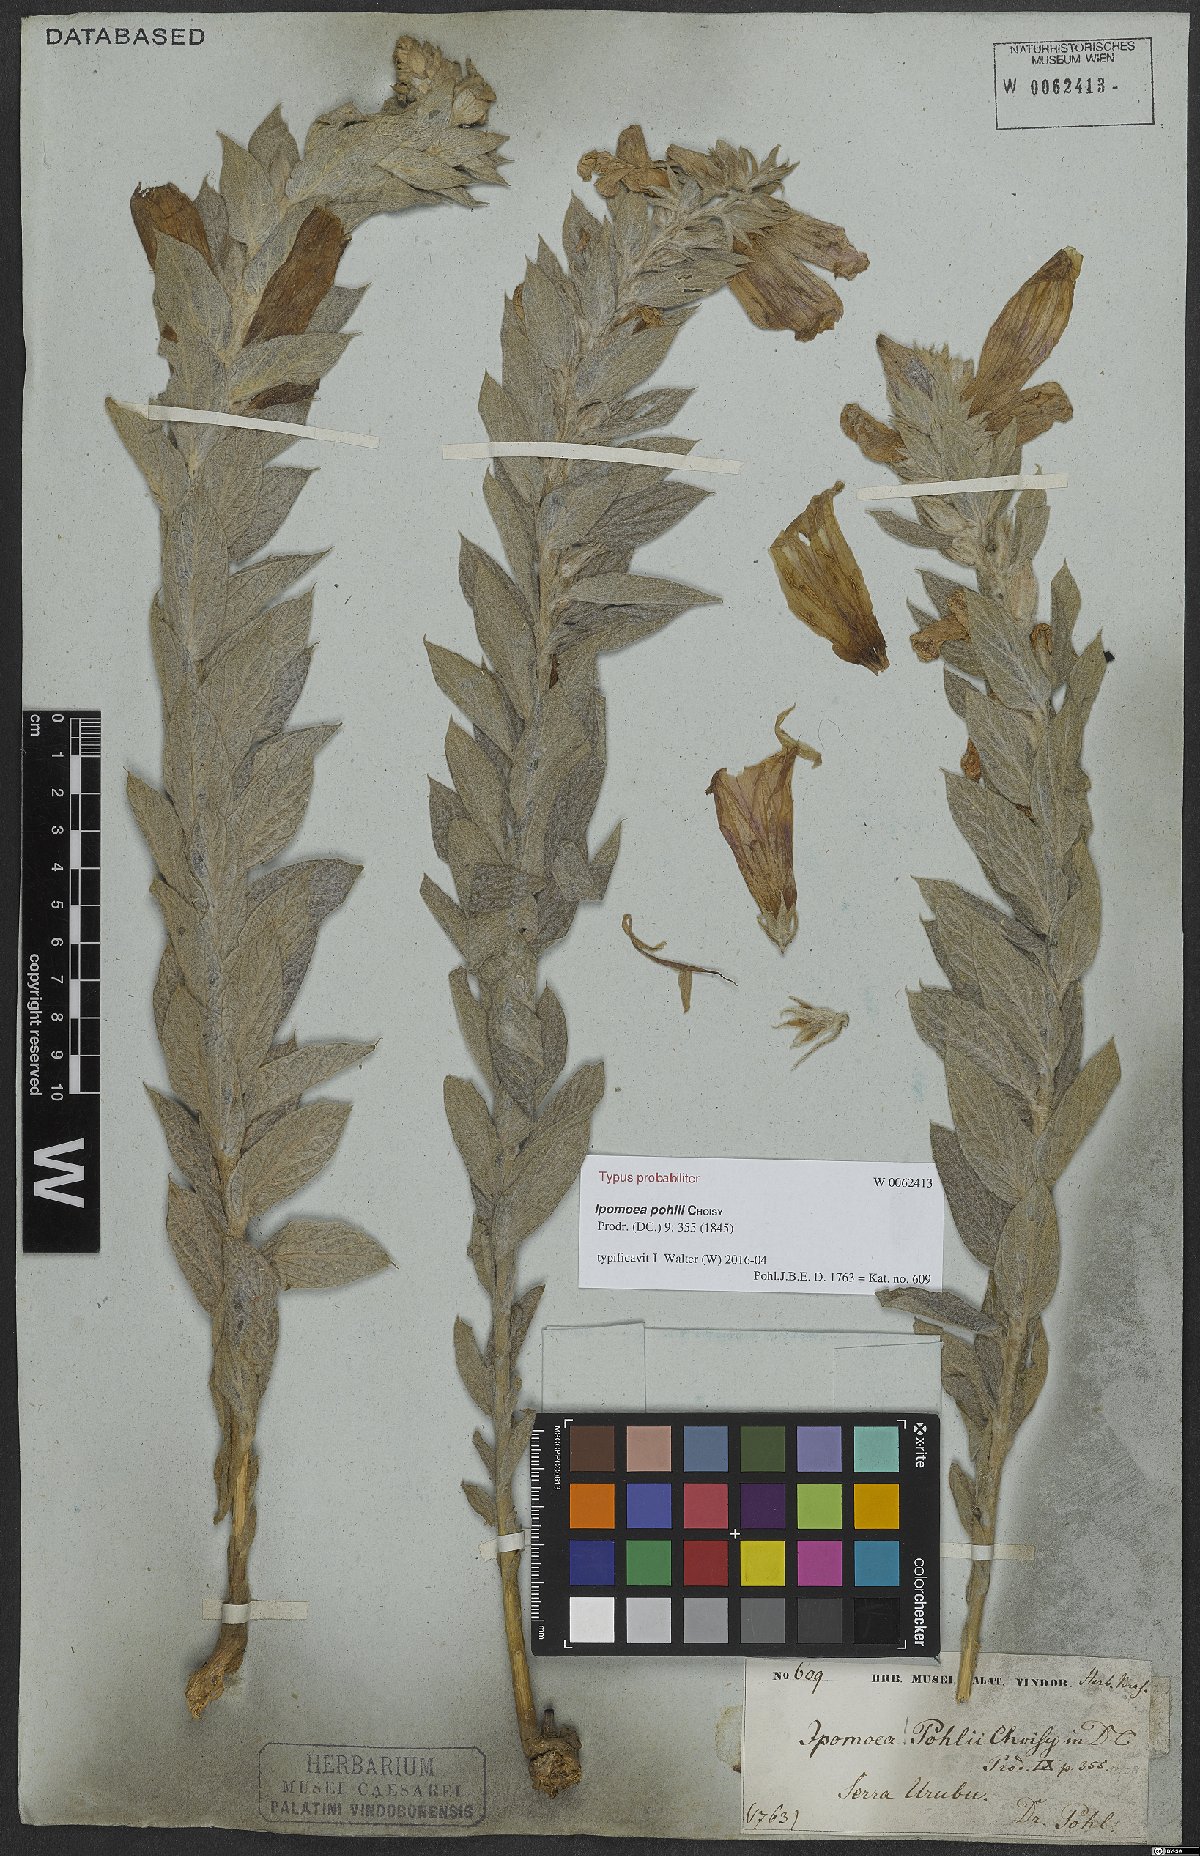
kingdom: Plantae
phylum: Tracheophyta
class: Magnoliopsida
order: Solanales
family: Convolvulaceae
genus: Ipomoea
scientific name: Ipomoea pohlii
